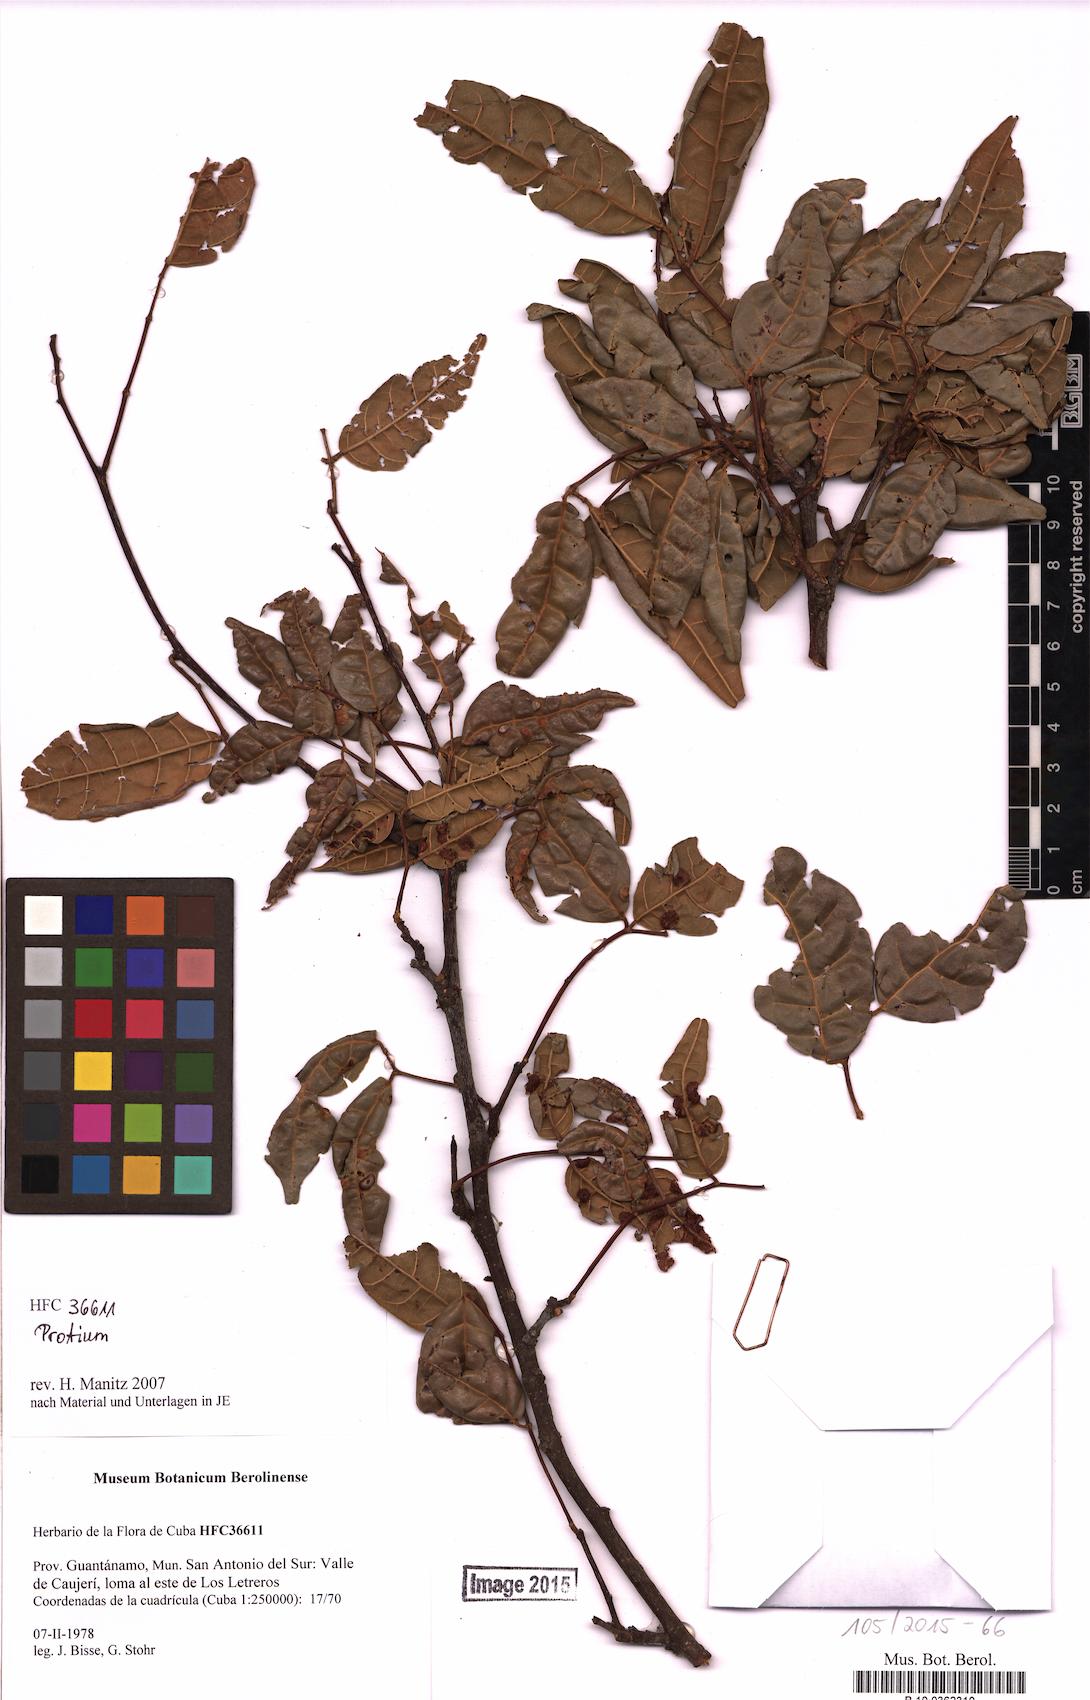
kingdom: Plantae
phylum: Tracheophyta
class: Magnoliopsida
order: Sapindales
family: Burseraceae
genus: Protium
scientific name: Protium
